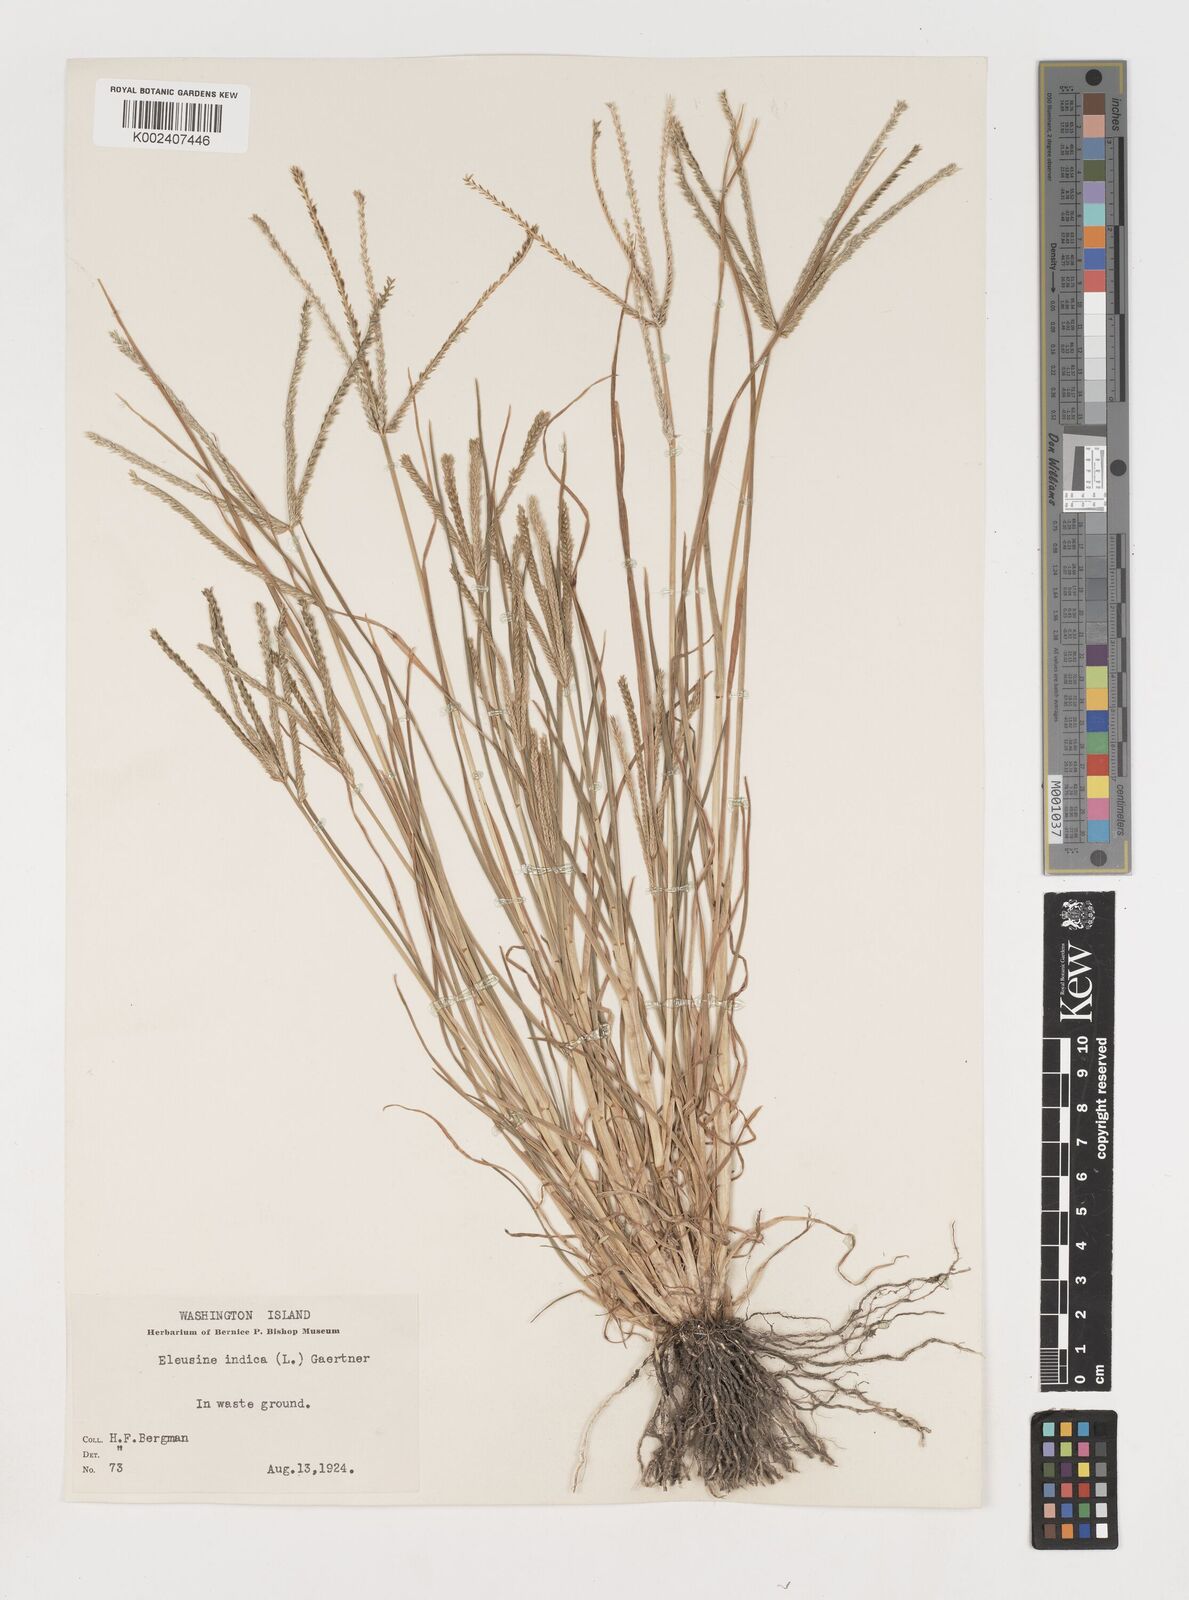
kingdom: Plantae
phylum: Tracheophyta
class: Liliopsida
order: Poales
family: Poaceae
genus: Eleusine
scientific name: Eleusine
